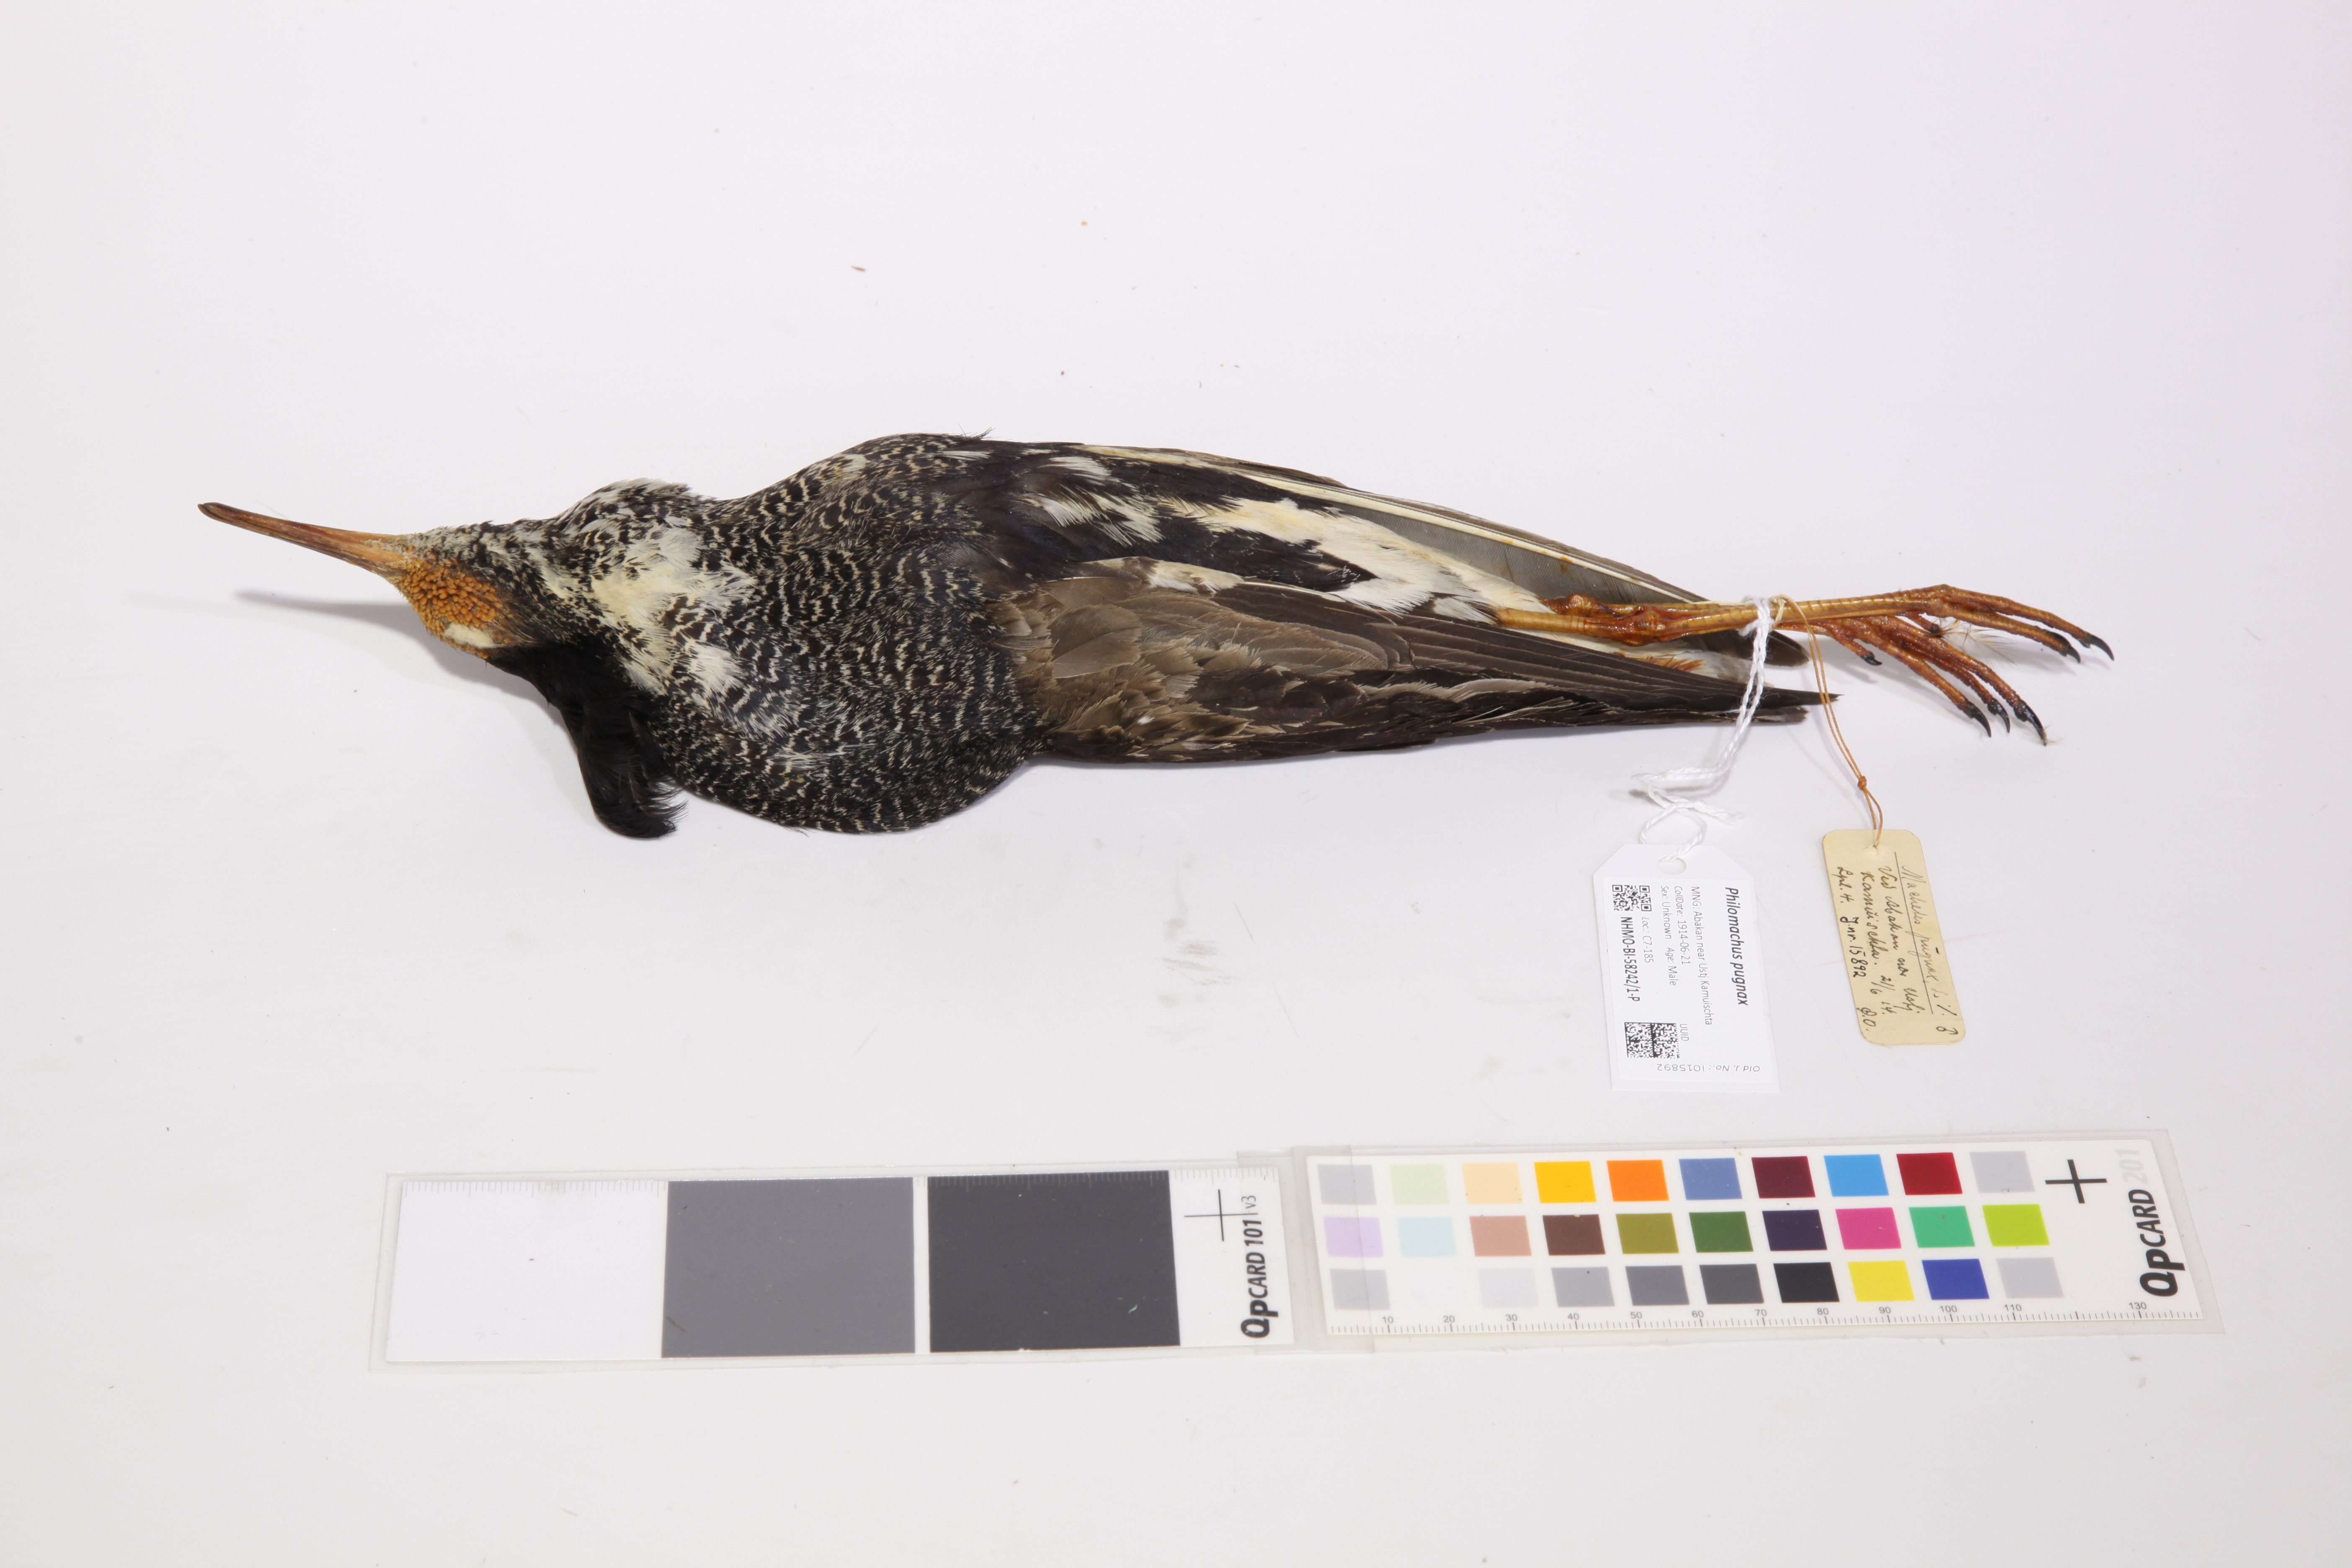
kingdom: Animalia
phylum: Chordata
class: Aves
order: Charadriiformes
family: Scolopacidae
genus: Calidris
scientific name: Calidris pugnax
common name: Ruff
